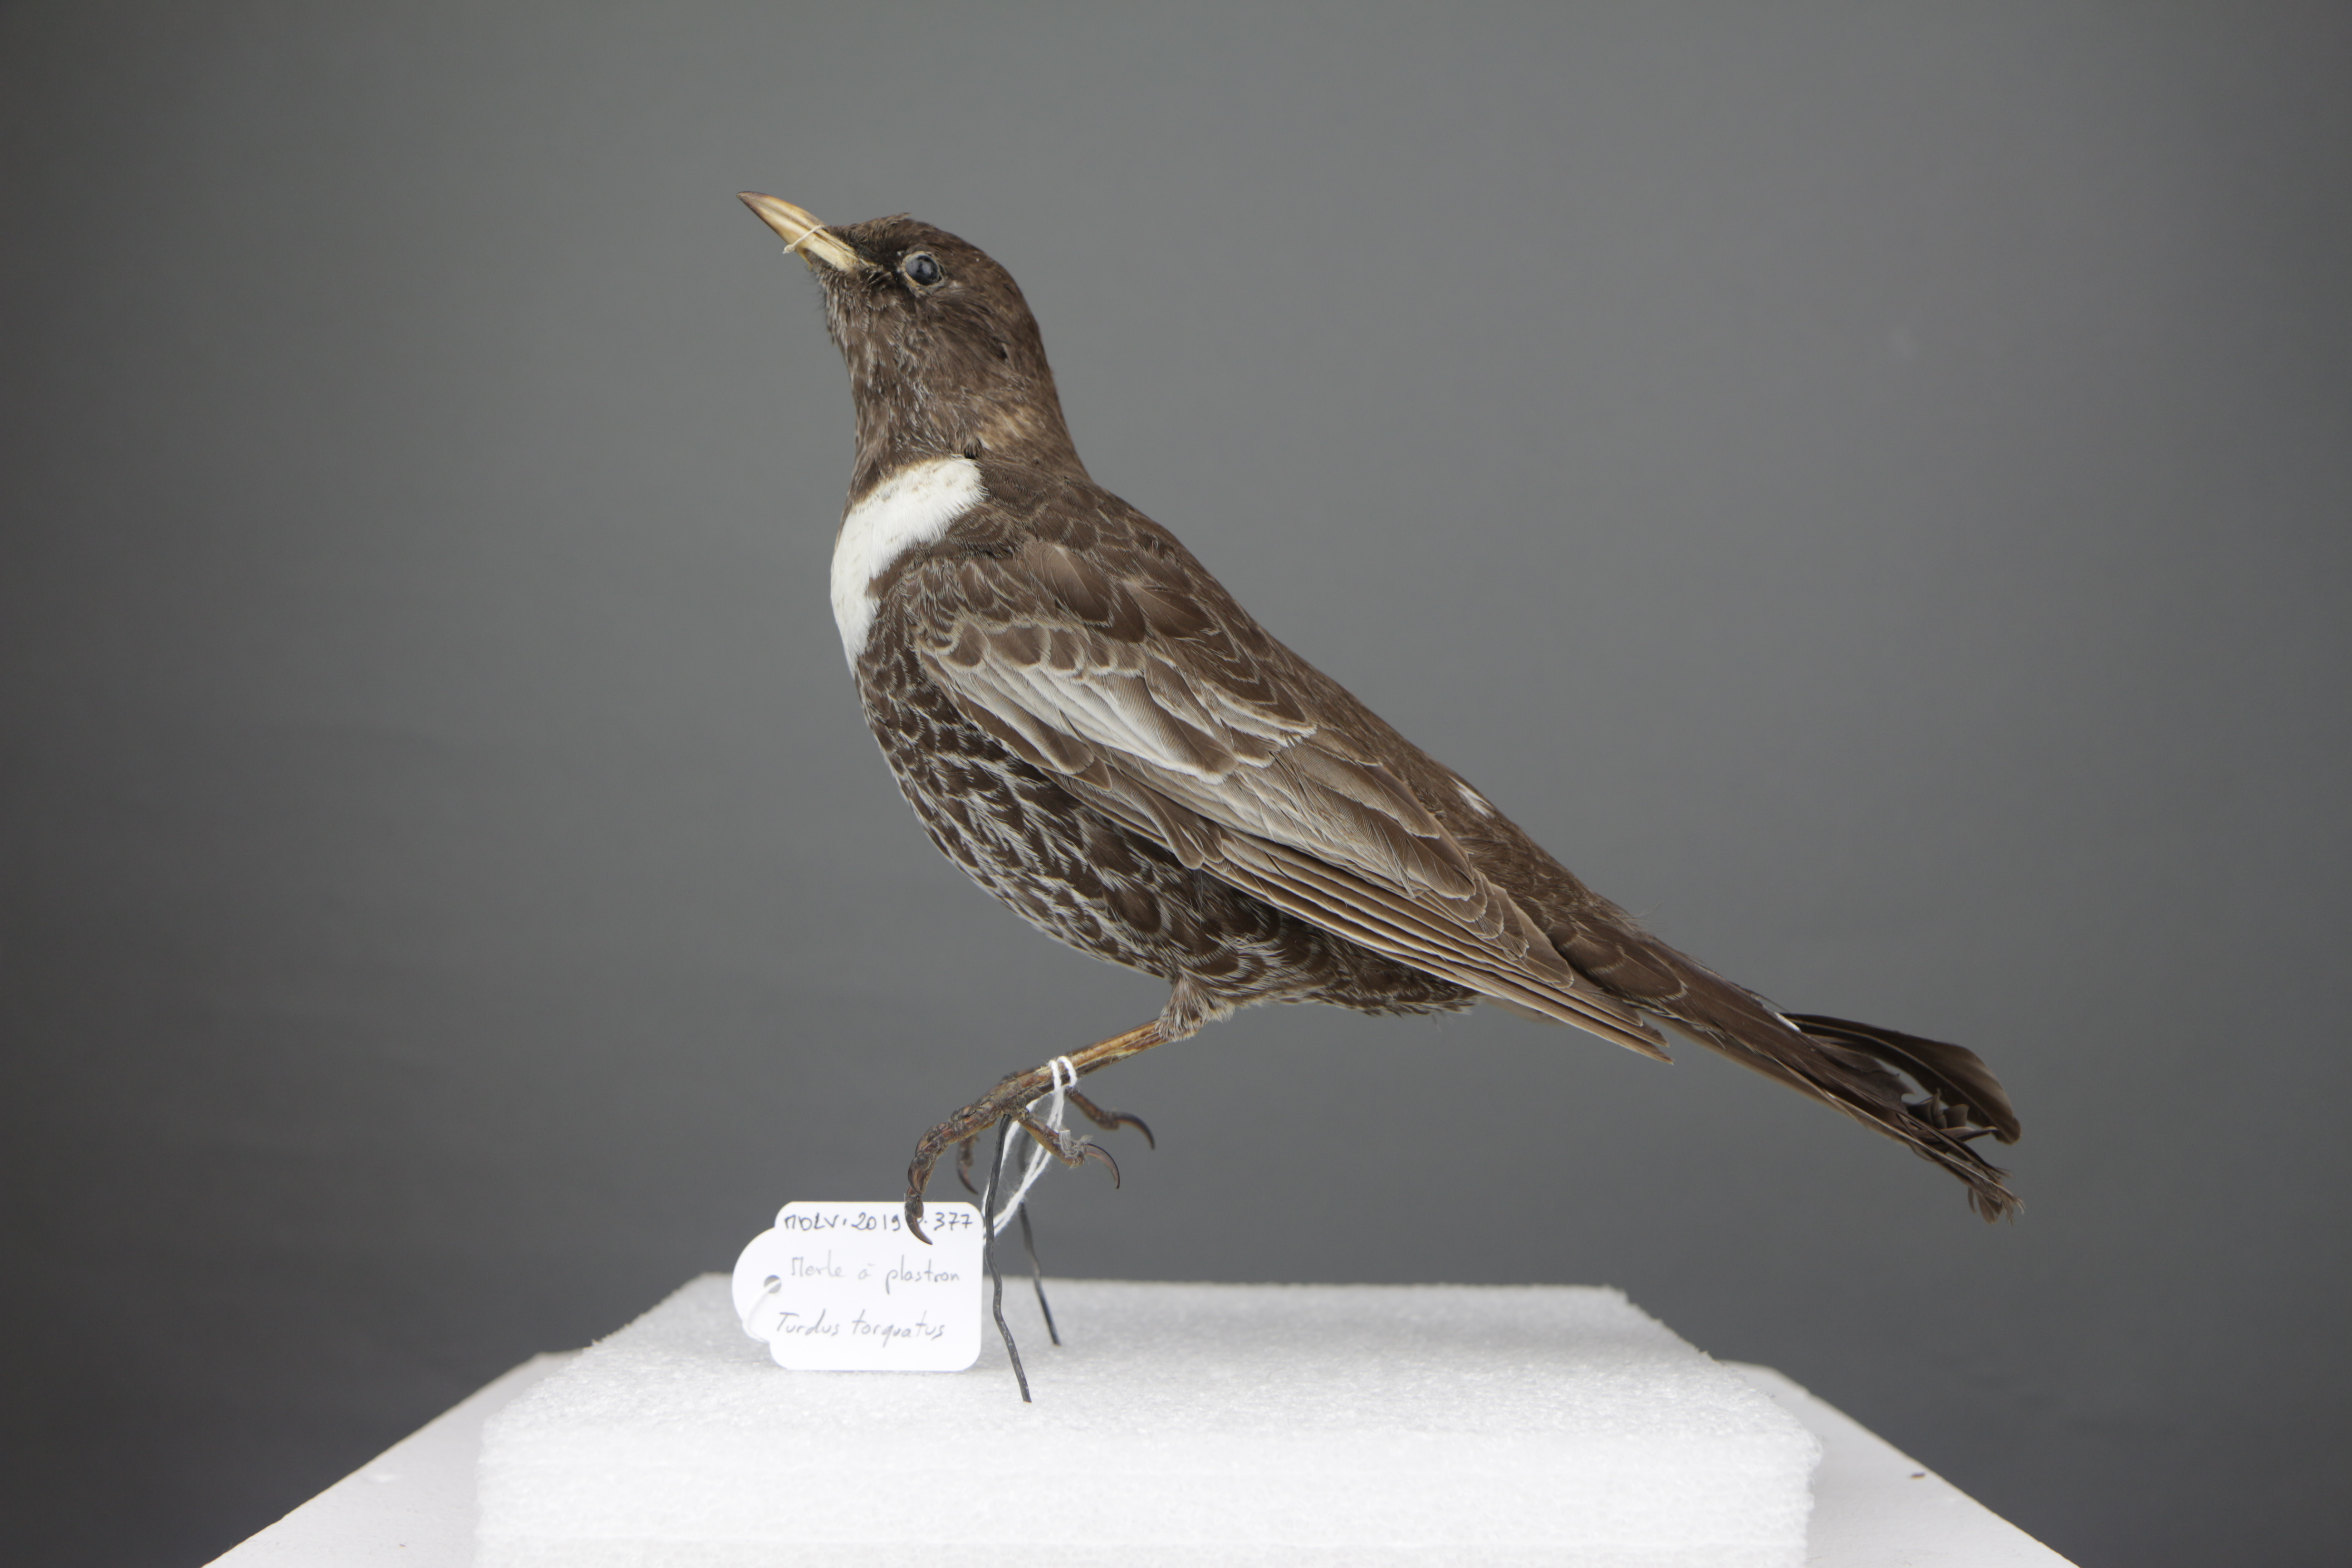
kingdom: Animalia
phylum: Chordata
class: Aves
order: Passeriformes
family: Turdidae
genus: Turdus
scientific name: Turdus torquatus
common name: Ring ouzel
